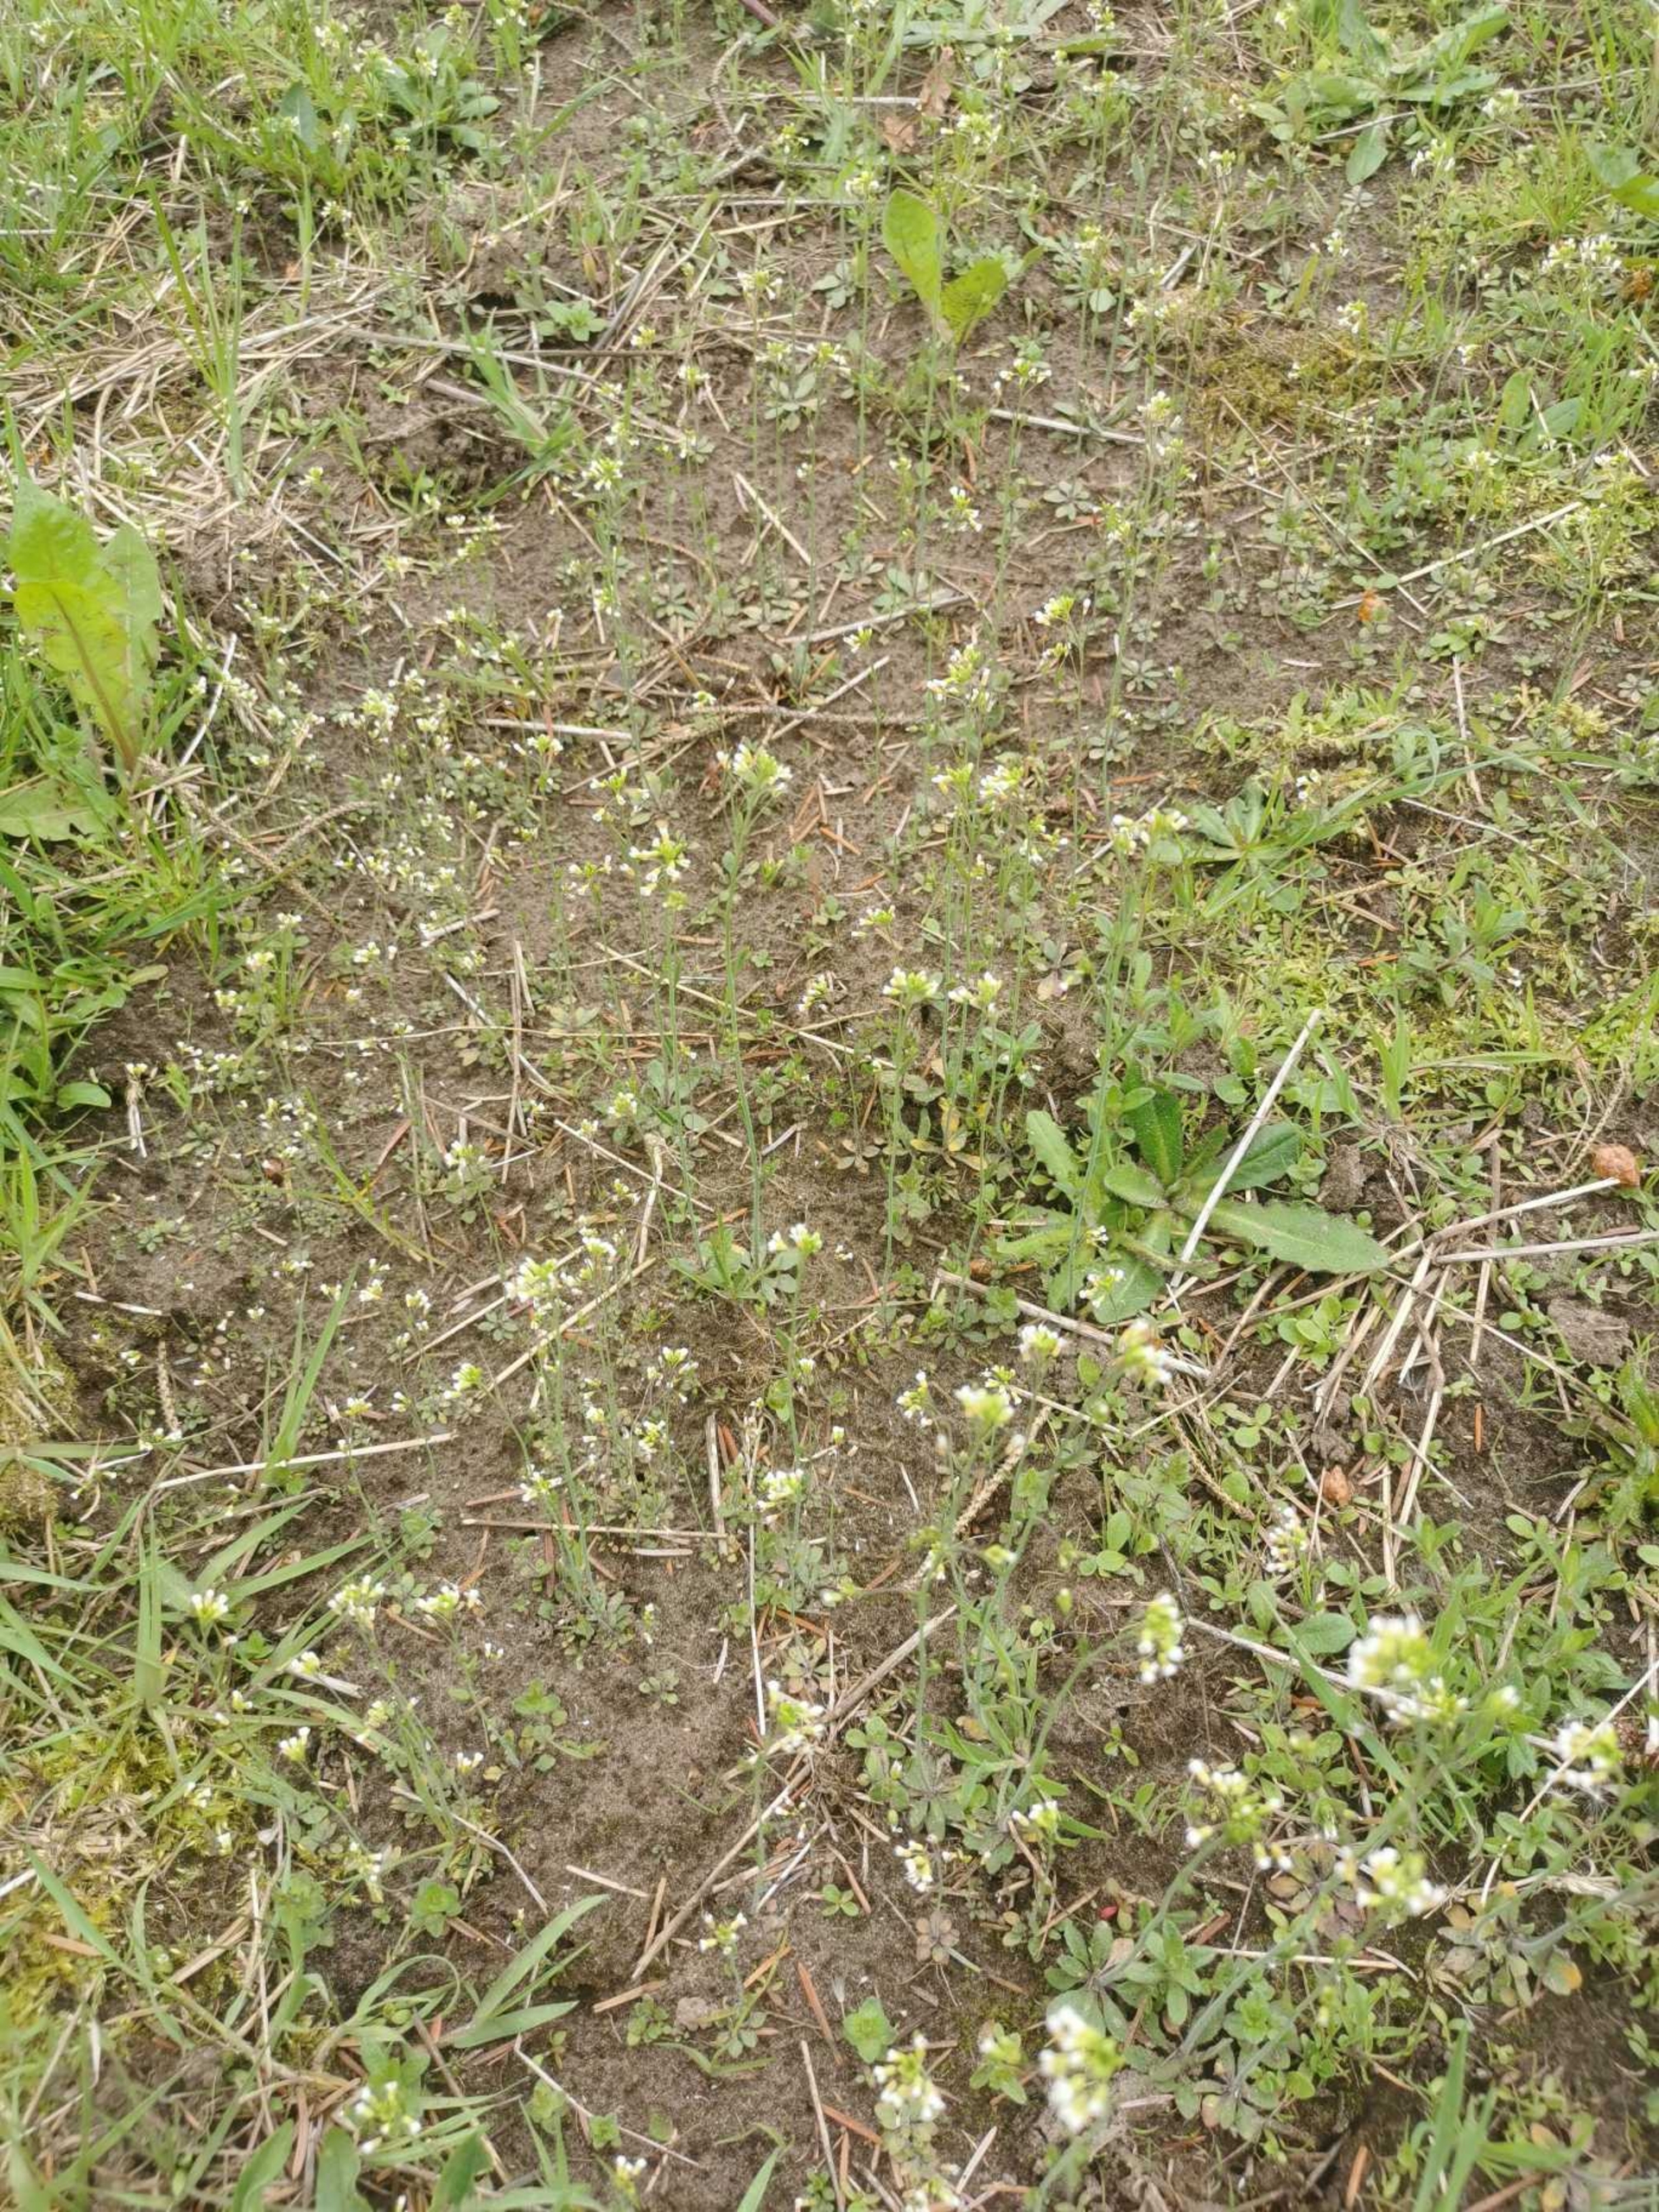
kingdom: Plantae
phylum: Tracheophyta
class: Magnoliopsida
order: Brassicales
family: Brassicaceae
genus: Arabidopsis
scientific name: Arabidopsis thaliana
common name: Almindelig gåsemad
